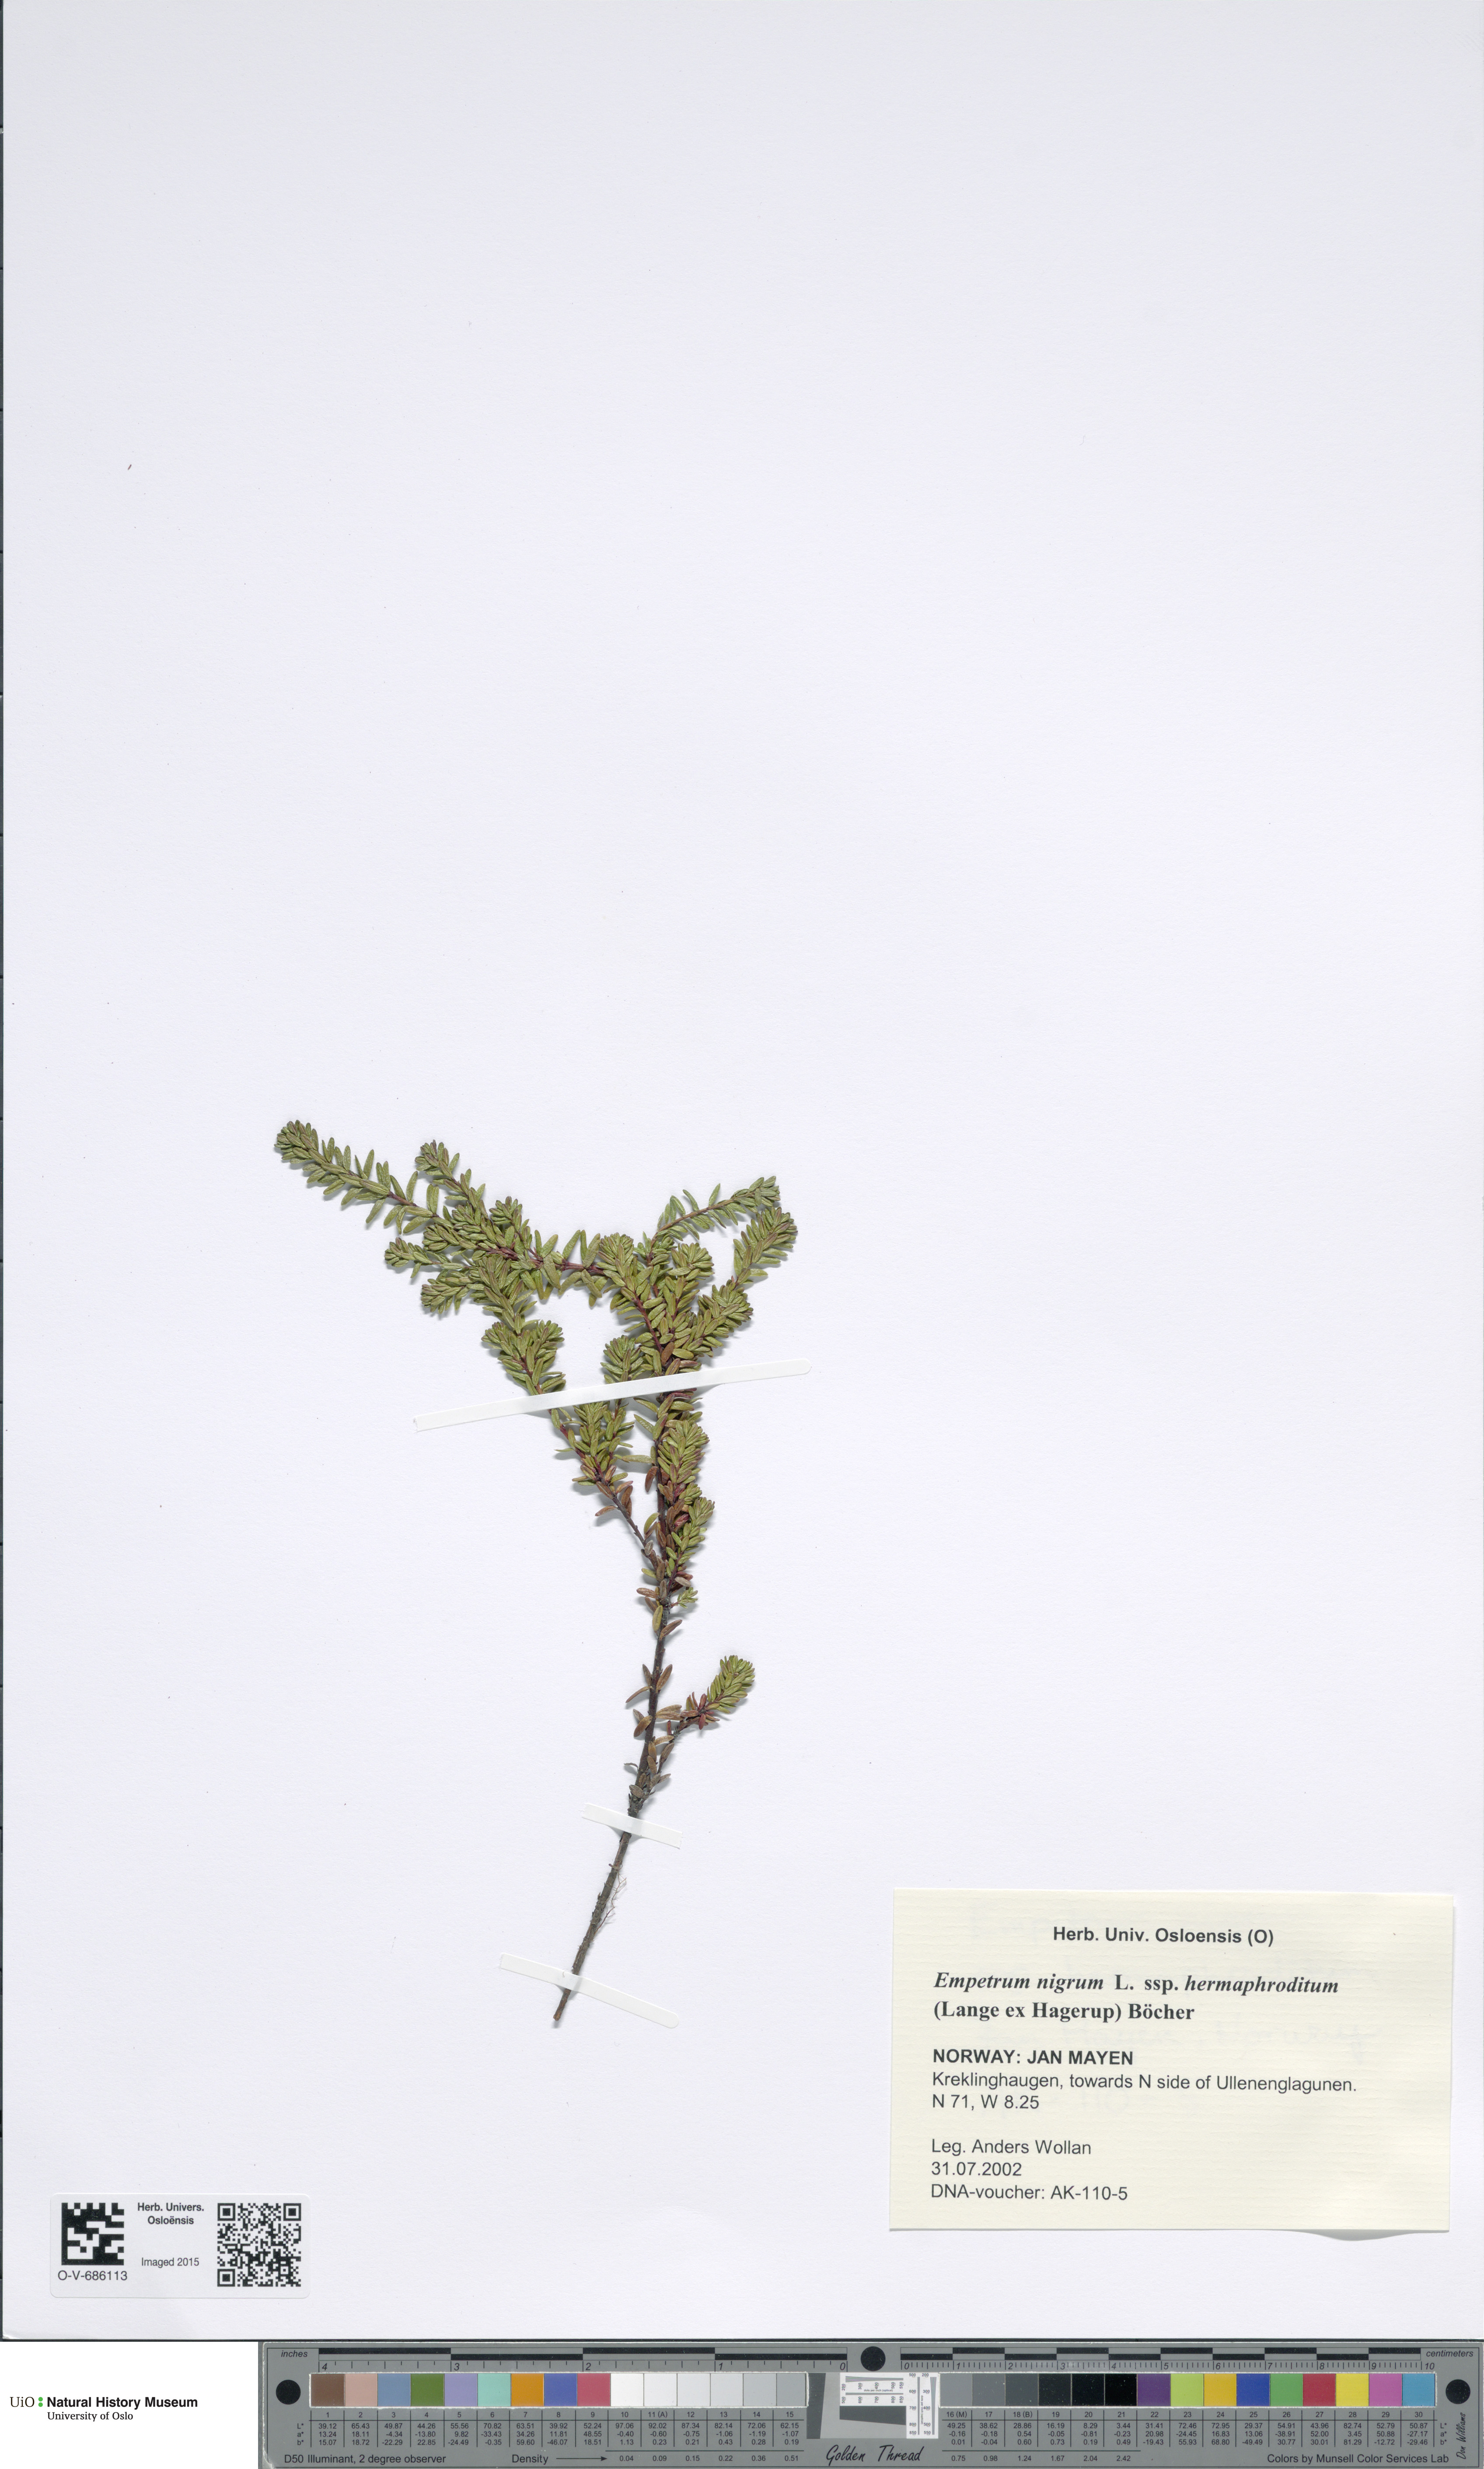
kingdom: Plantae
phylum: Tracheophyta
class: Magnoliopsida
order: Ericales
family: Ericaceae
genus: Empetrum
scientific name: Empetrum nigrum
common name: Black crowberry
